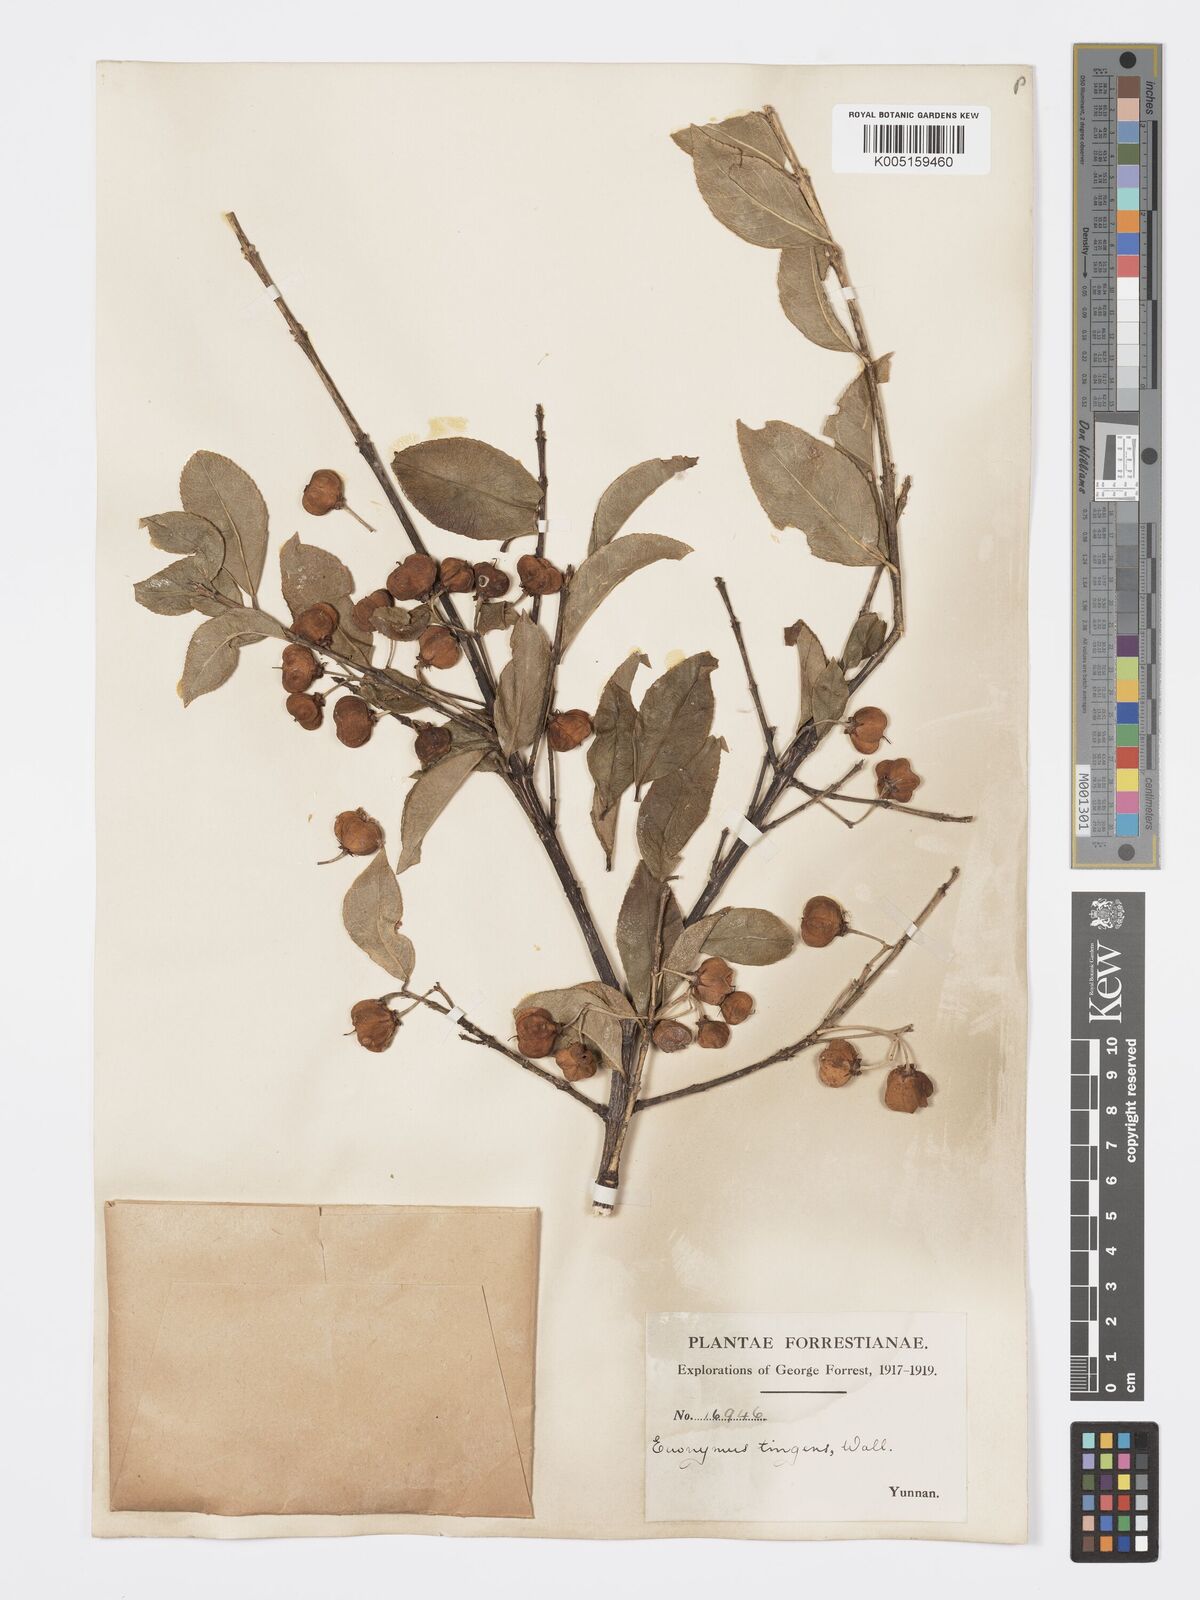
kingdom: Plantae
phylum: Tracheophyta
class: Magnoliopsida
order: Celastrales
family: Celastraceae
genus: Euonymus
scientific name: Euonymus tingens
